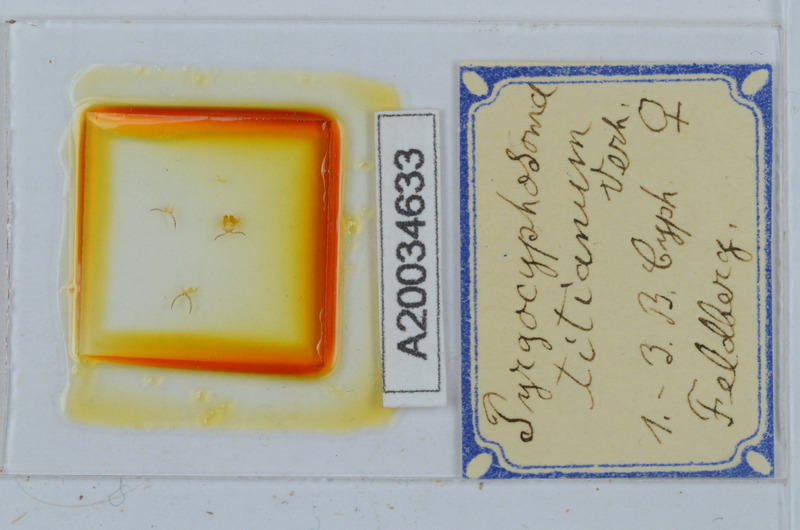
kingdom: Animalia
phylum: Arthropoda
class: Diplopoda
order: Chordeumatida
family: Craspedosomatidae
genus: Pyrgocyphosoma
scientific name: Pyrgocyphosoma titianum
